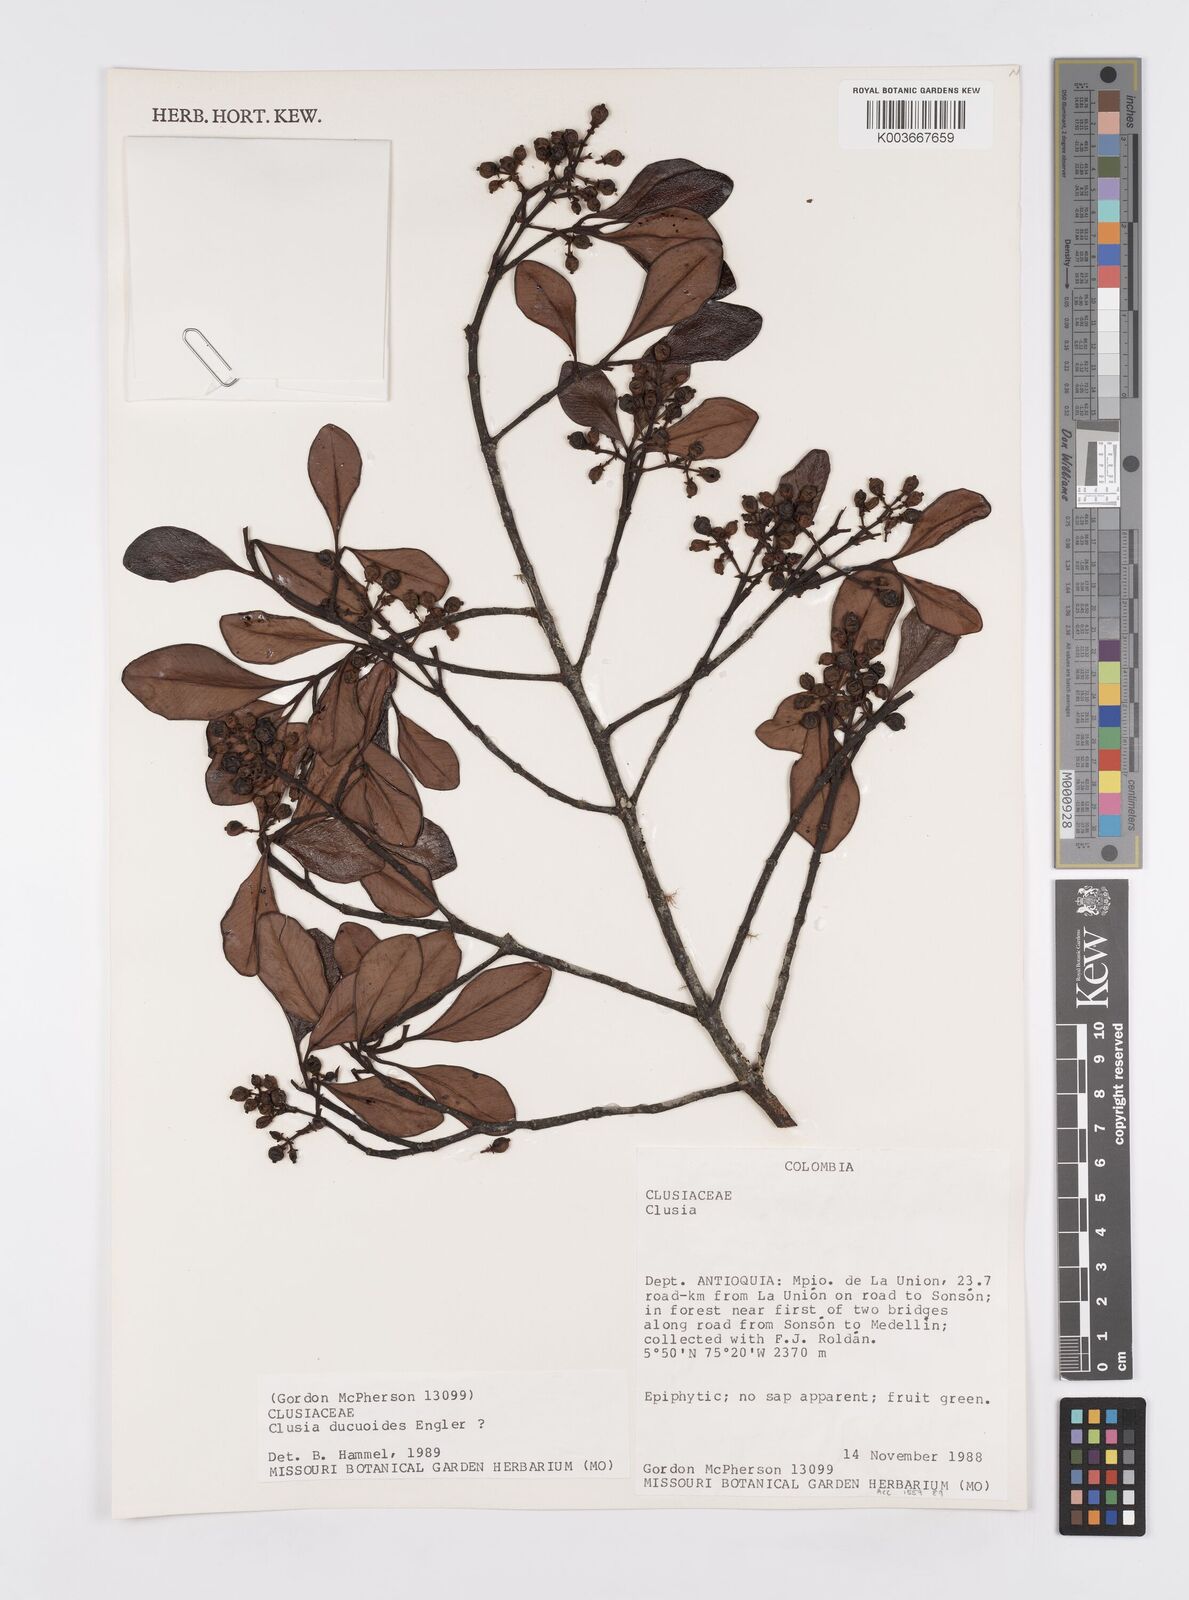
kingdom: Plantae
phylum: Tracheophyta
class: Magnoliopsida
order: Malpighiales
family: Clusiaceae
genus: Clusia
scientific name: Clusia ducuoides
